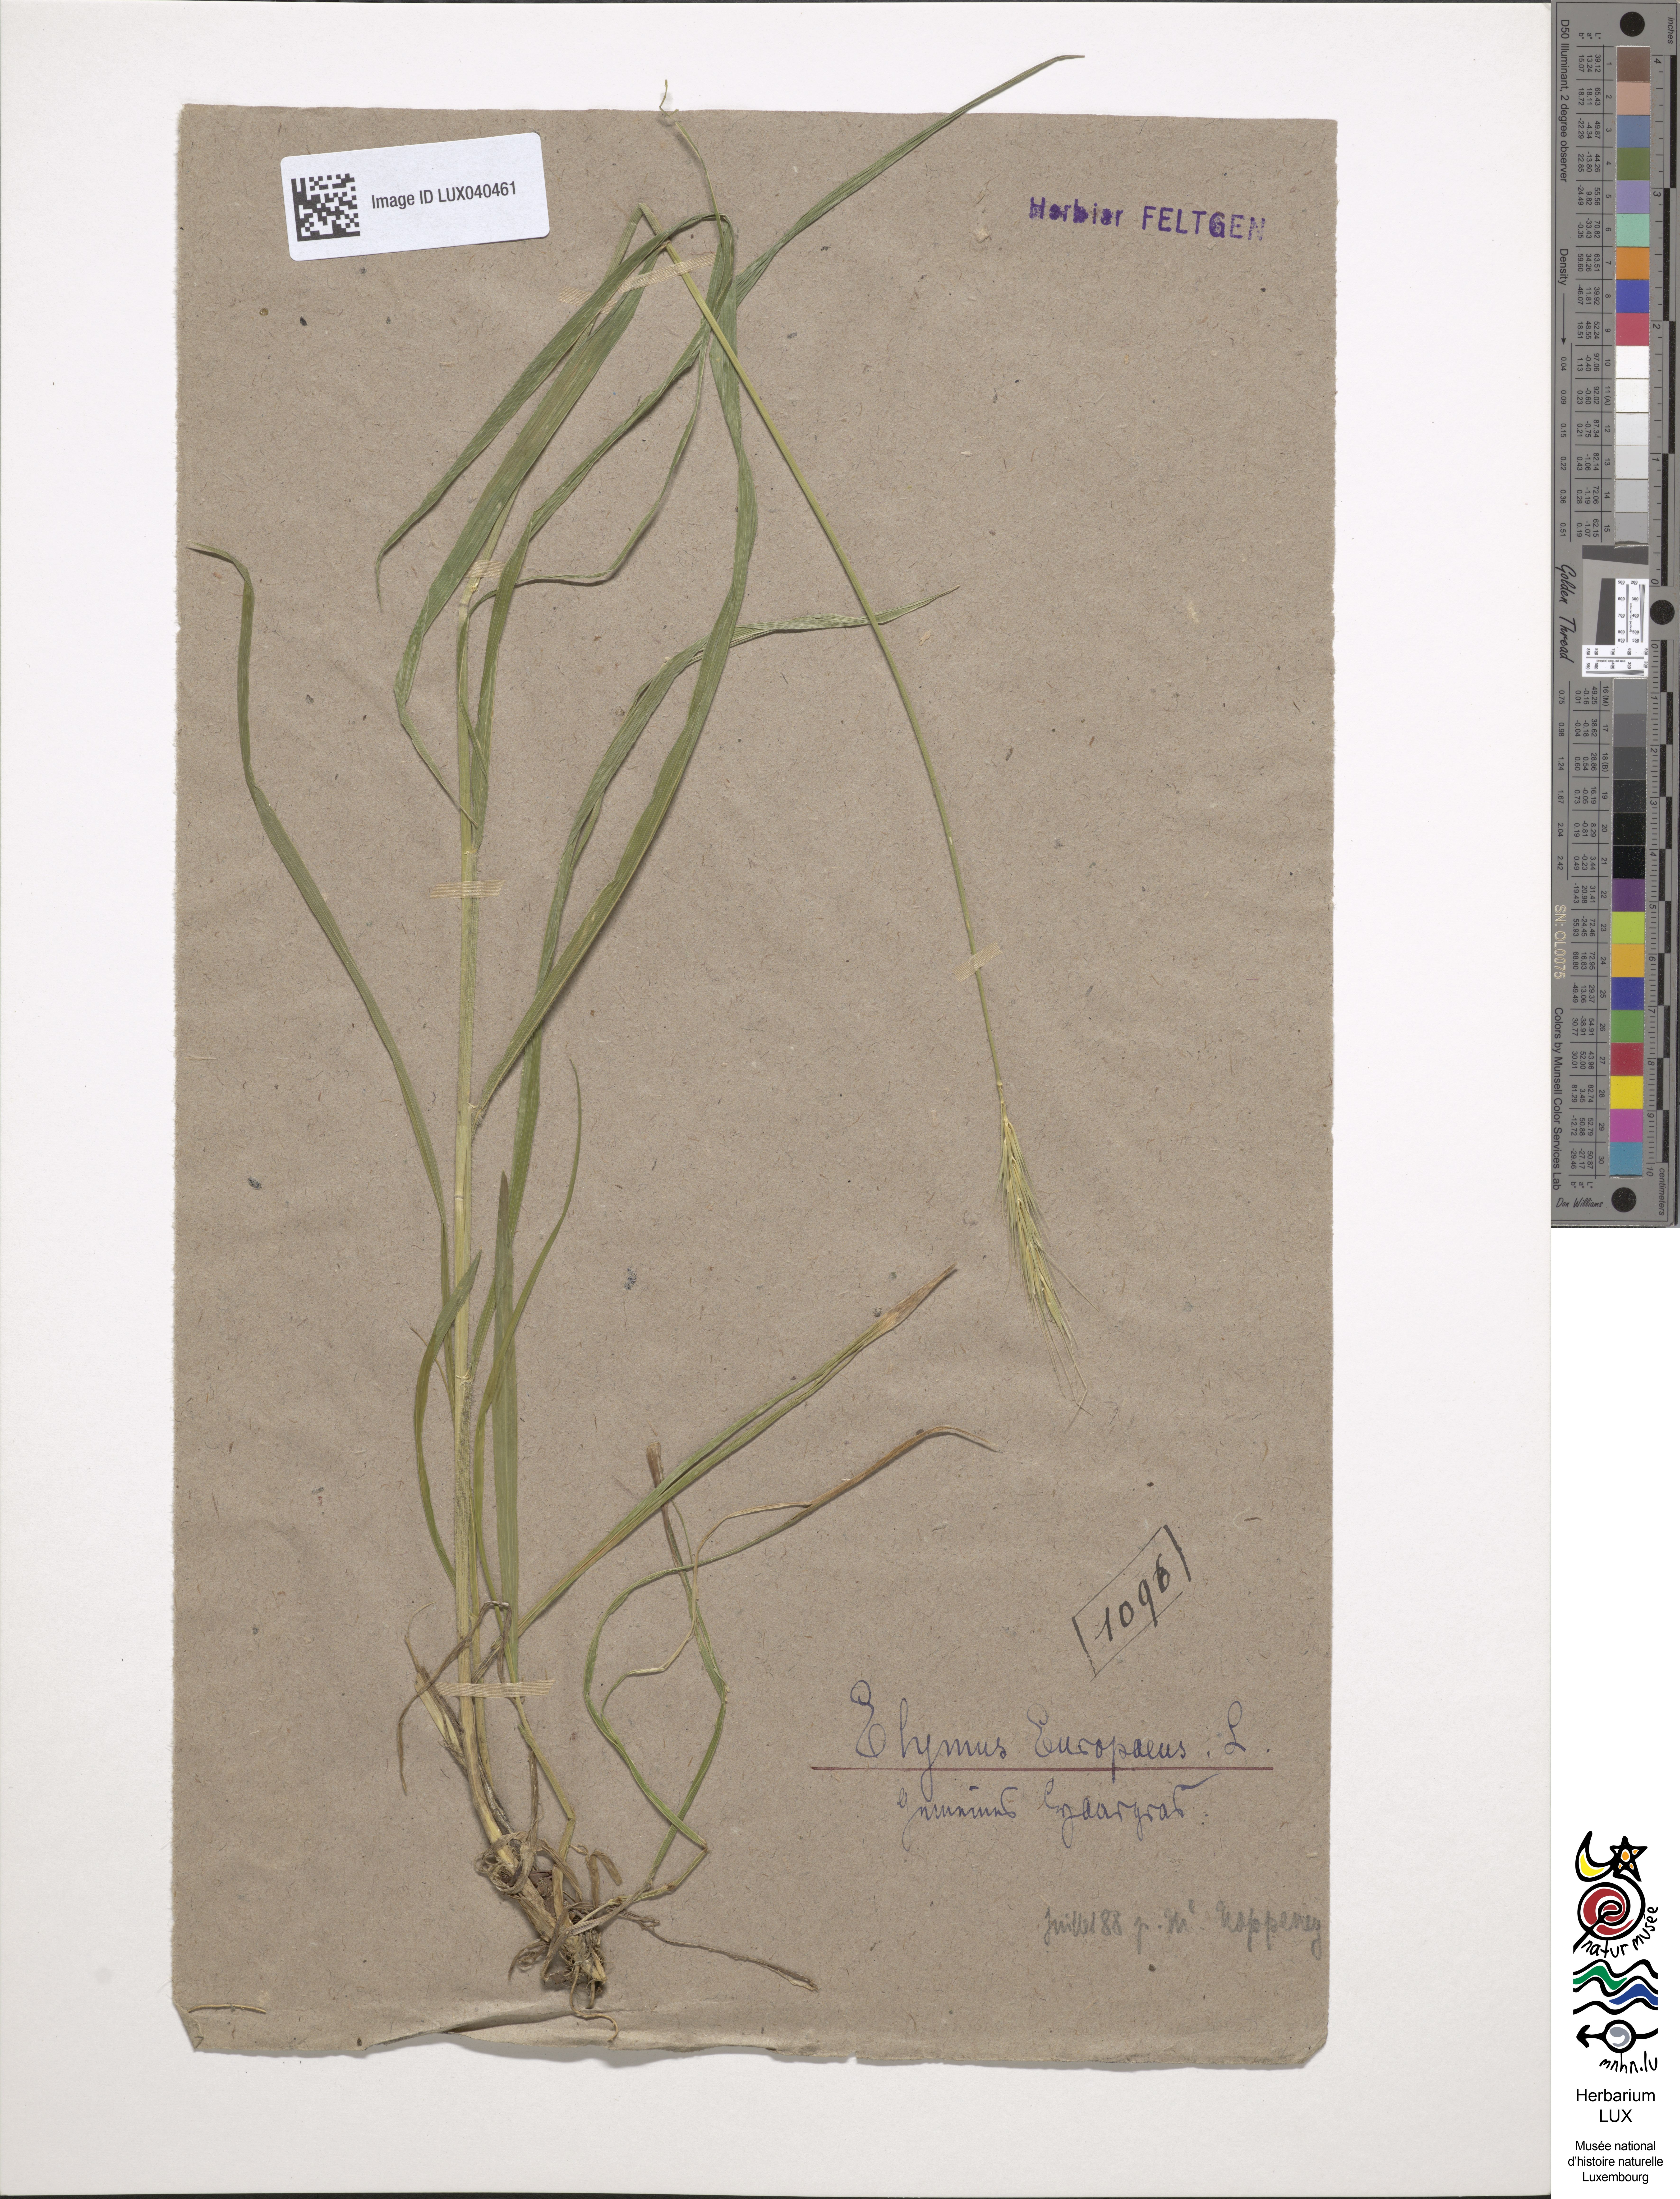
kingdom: Plantae
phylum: Tracheophyta
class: Liliopsida
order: Poales
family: Poaceae
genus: Hordelymus
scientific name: Hordelymus europaeus
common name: Wood-barley
